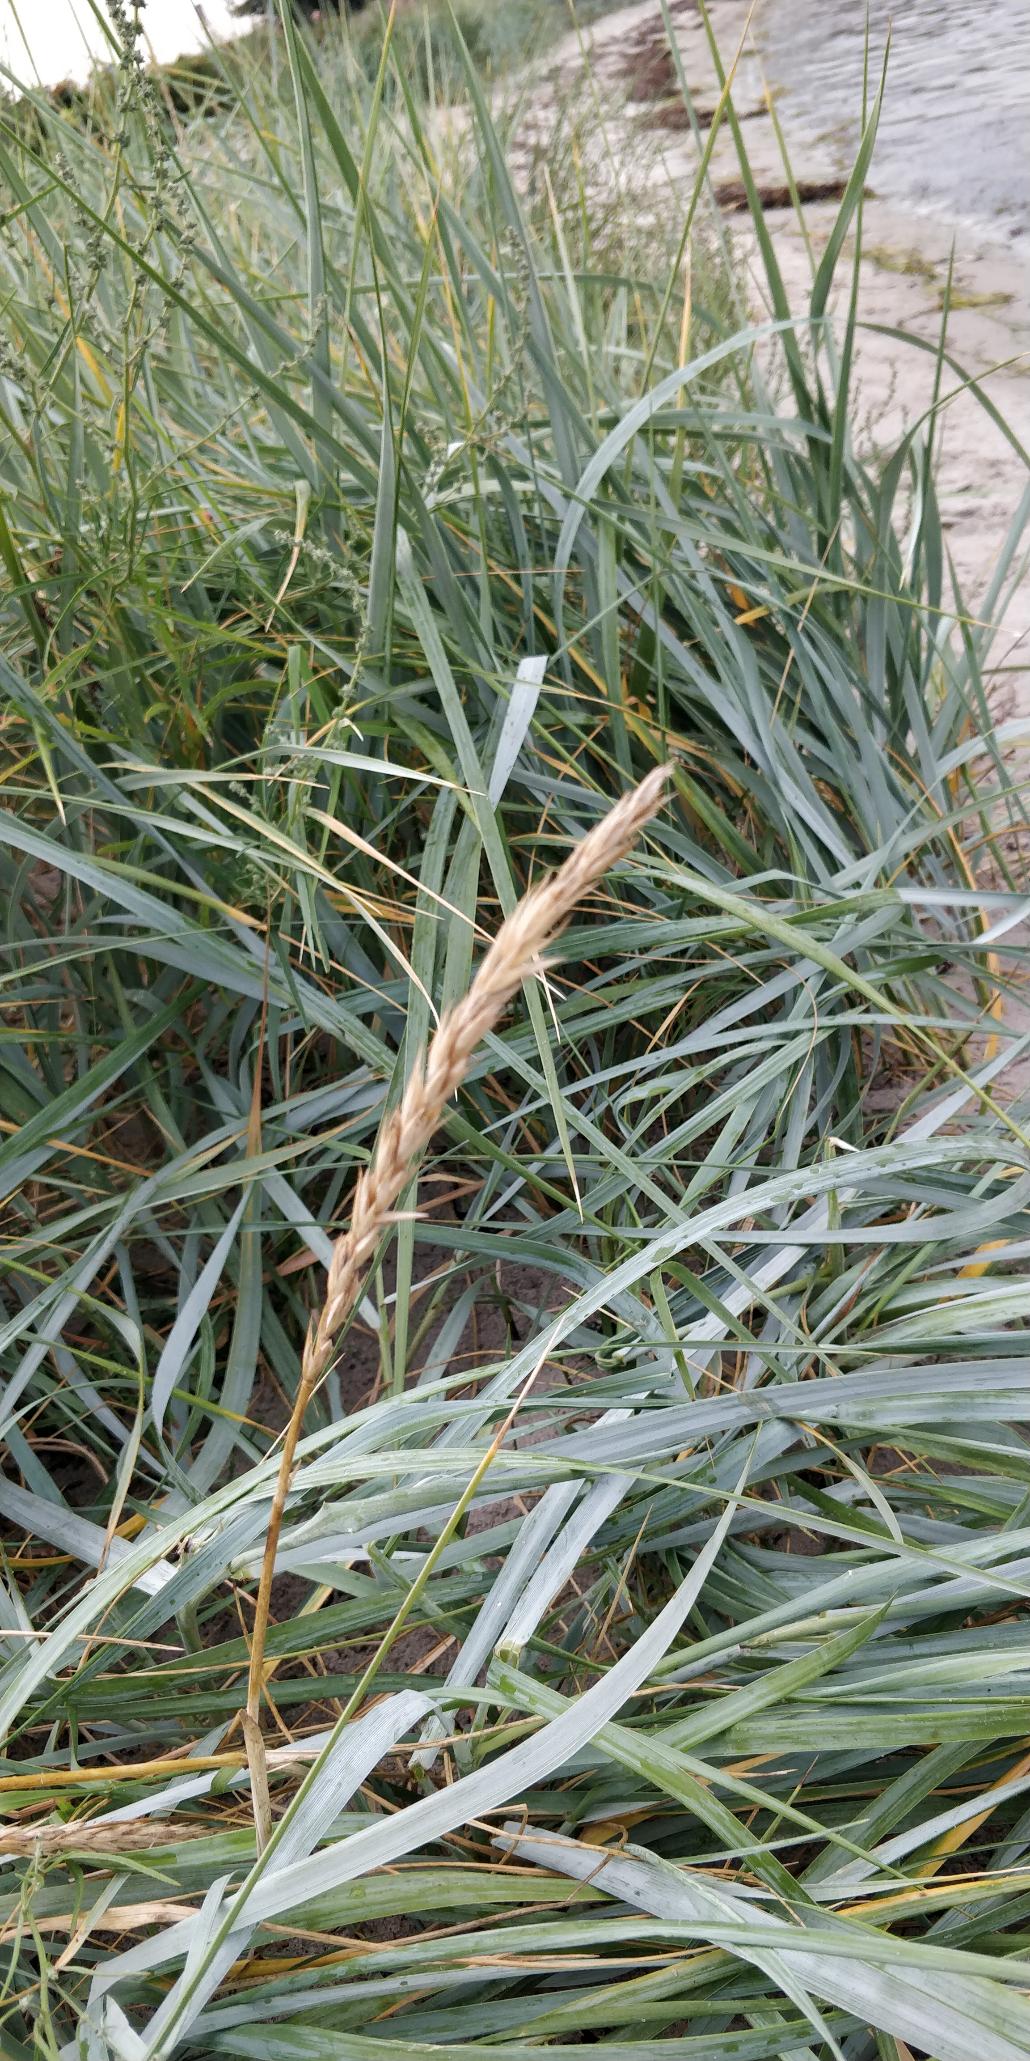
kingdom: Plantae
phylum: Tracheophyta
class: Liliopsida
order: Poales
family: Poaceae
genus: Leymus
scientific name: Leymus arenarius
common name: Marehalm
